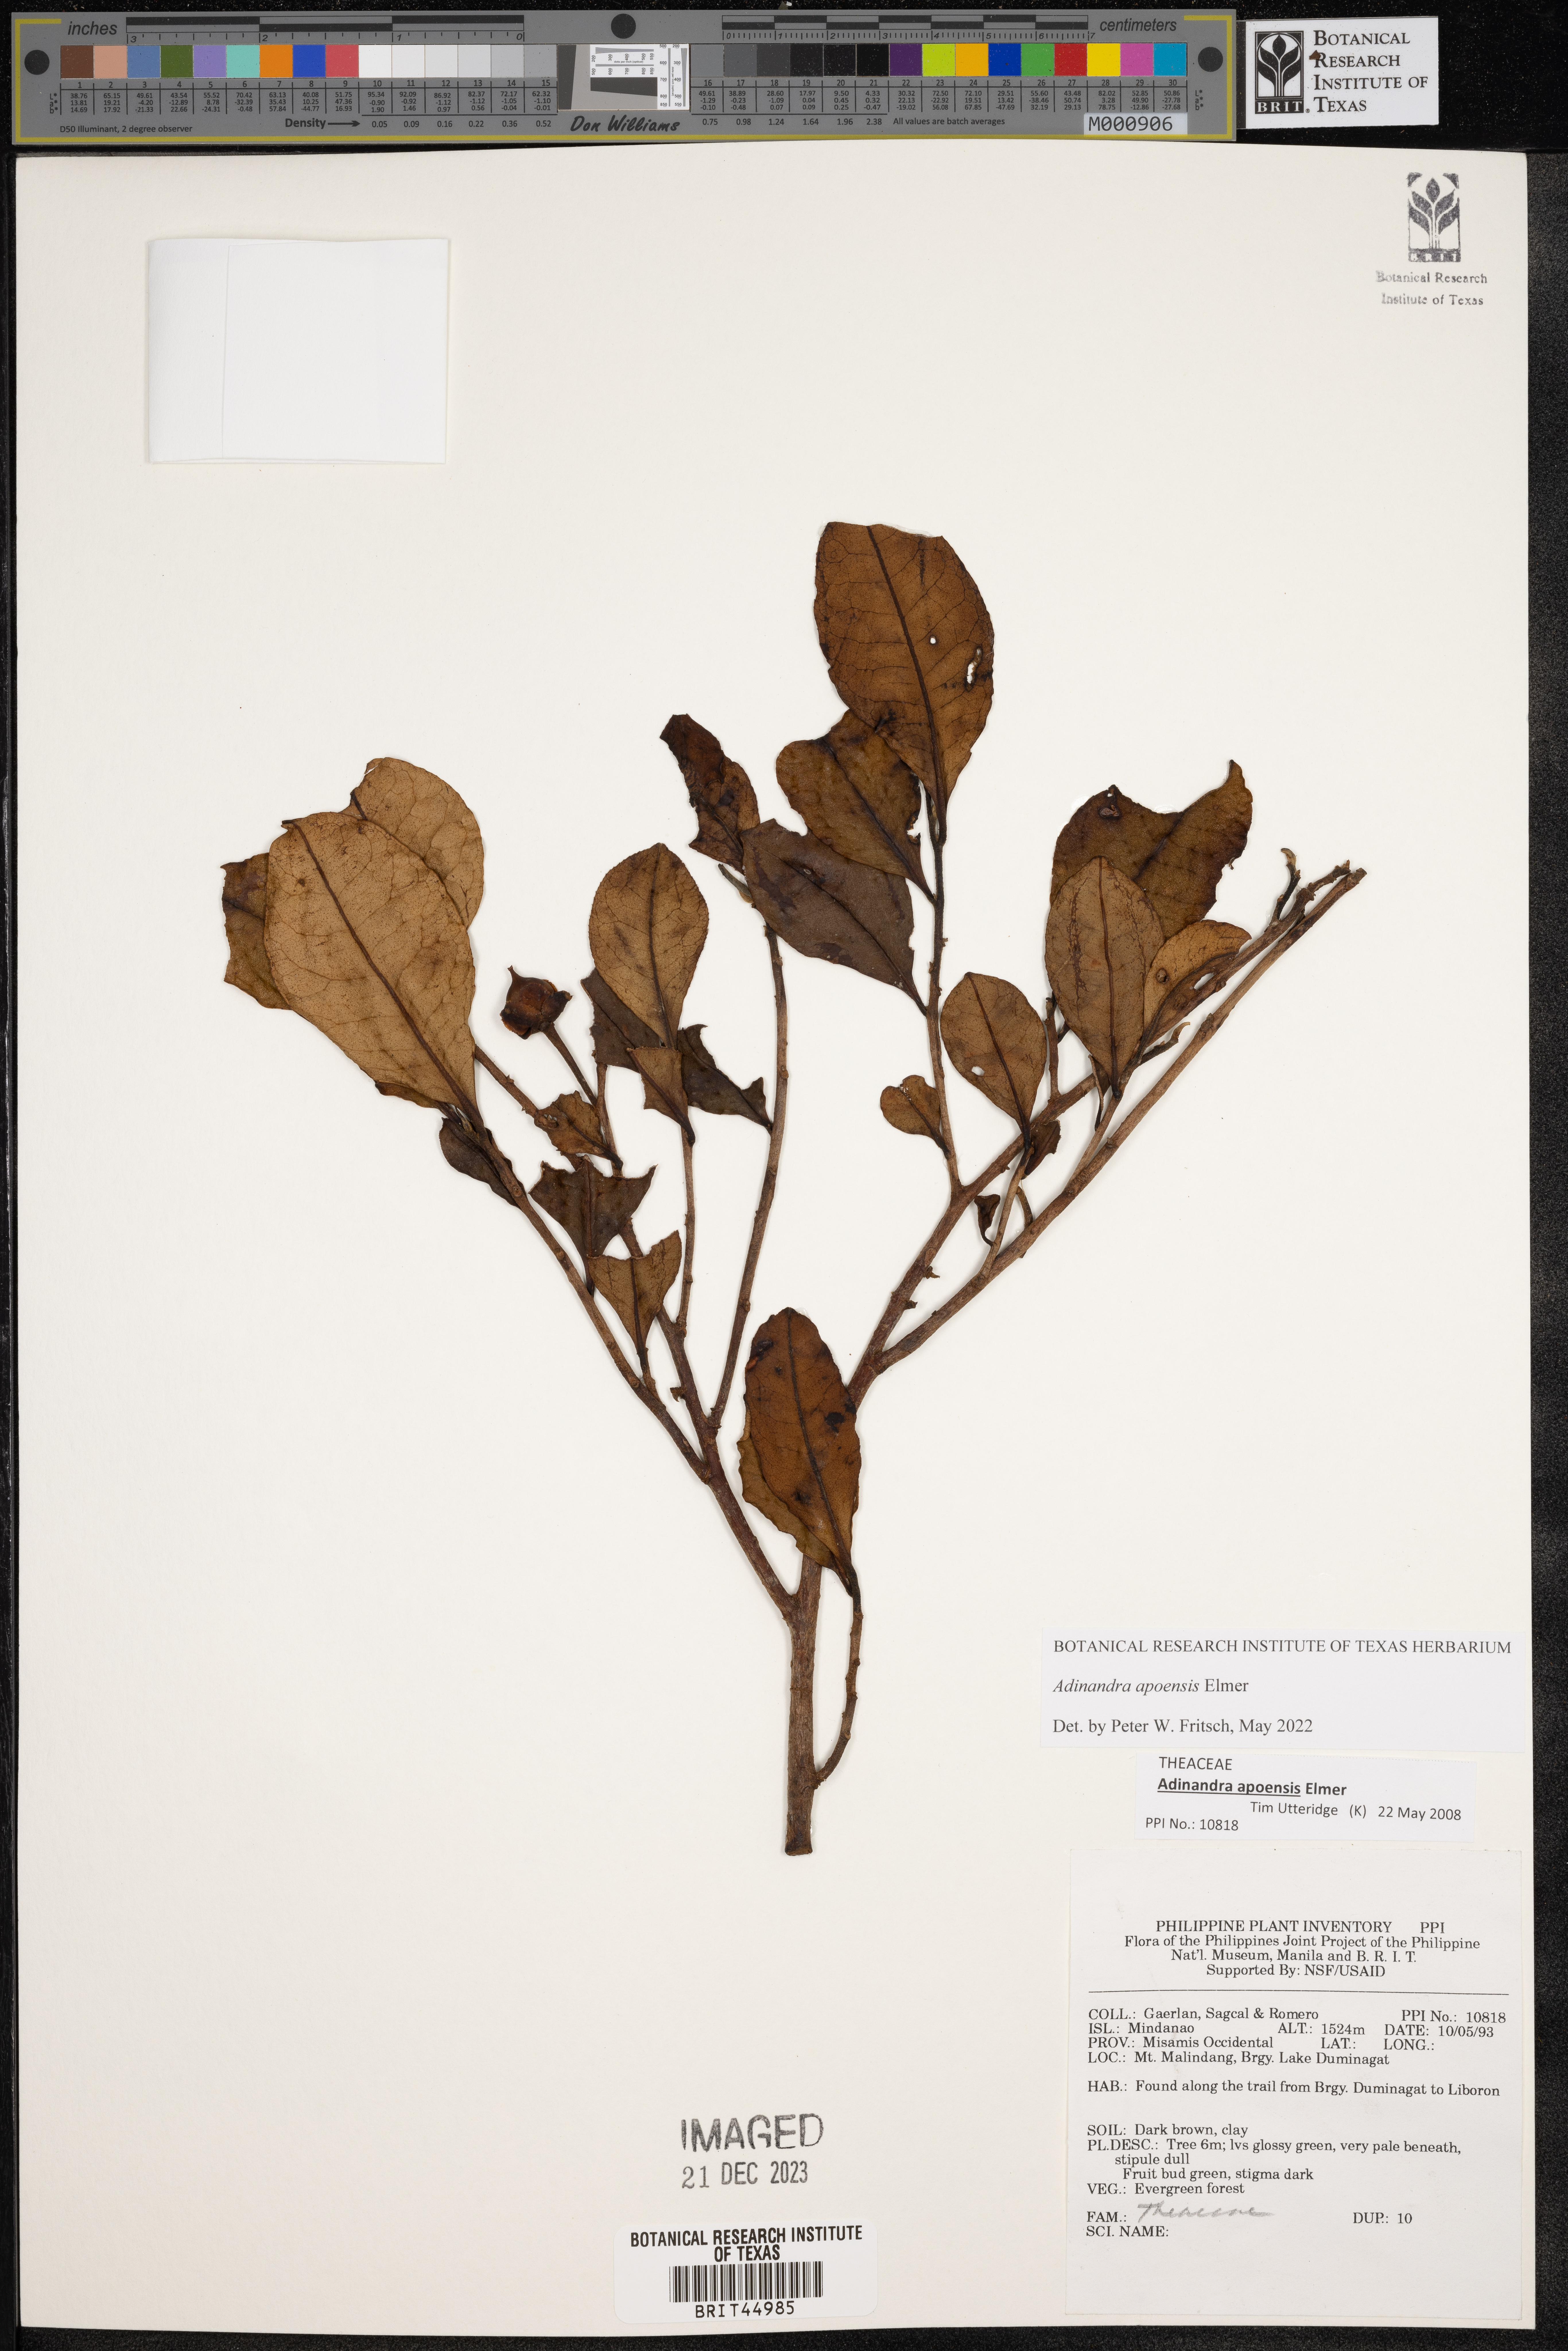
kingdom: Plantae
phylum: Tracheophyta
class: Magnoliopsida
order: Ericales
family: Theaceae
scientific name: Theaceae
